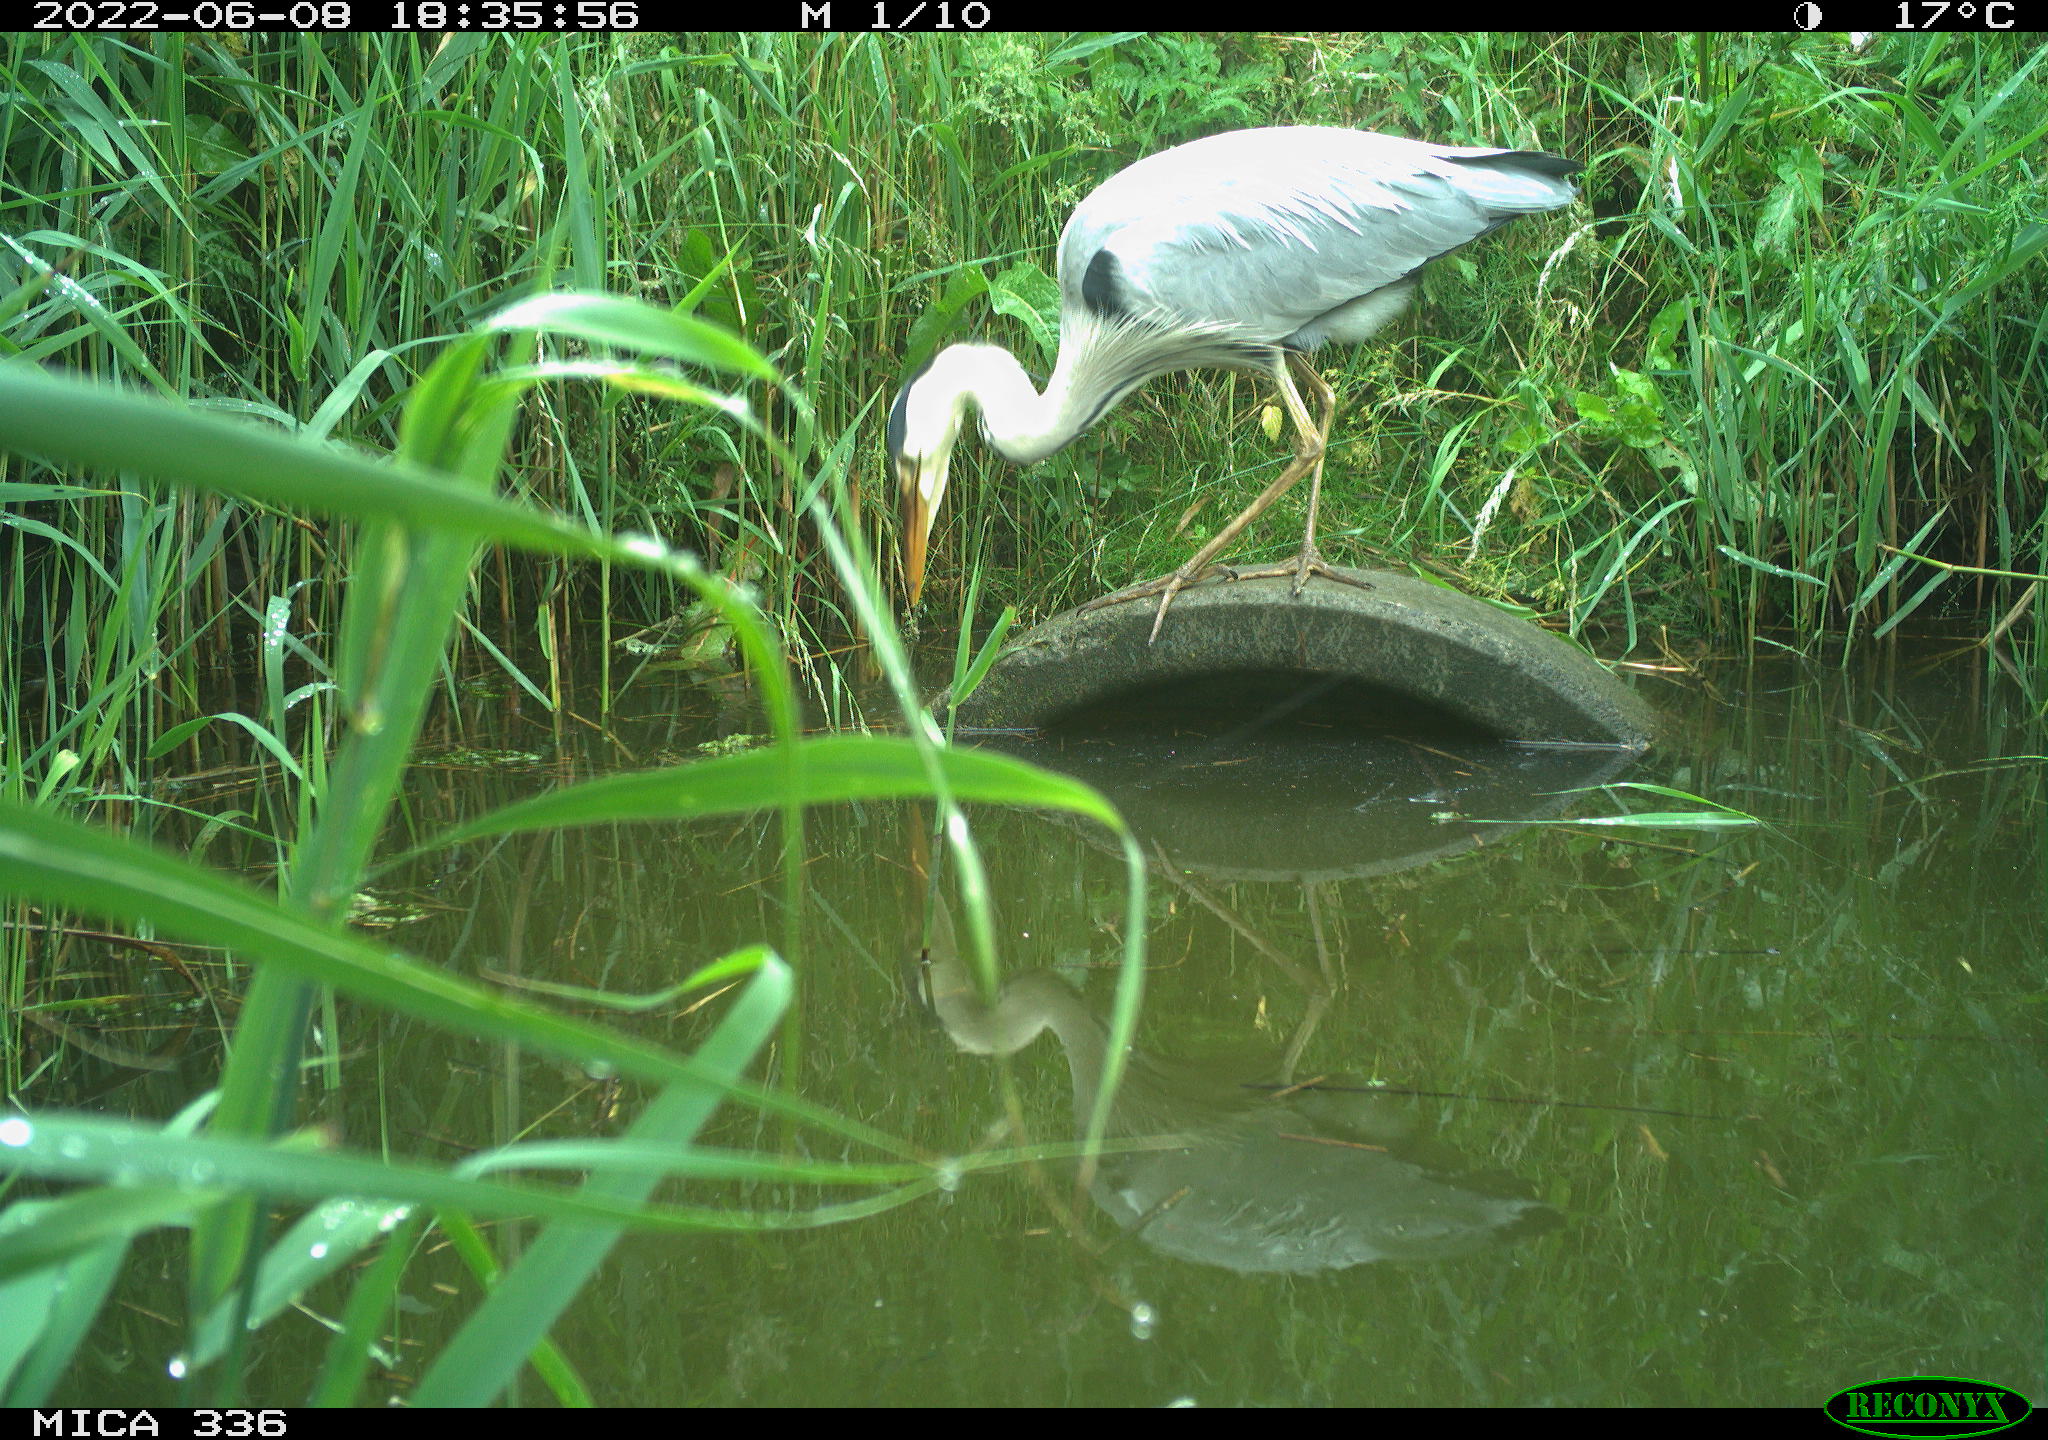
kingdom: Animalia
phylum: Chordata
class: Aves
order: Pelecaniformes
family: Ardeidae
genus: Ardea
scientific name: Ardea
